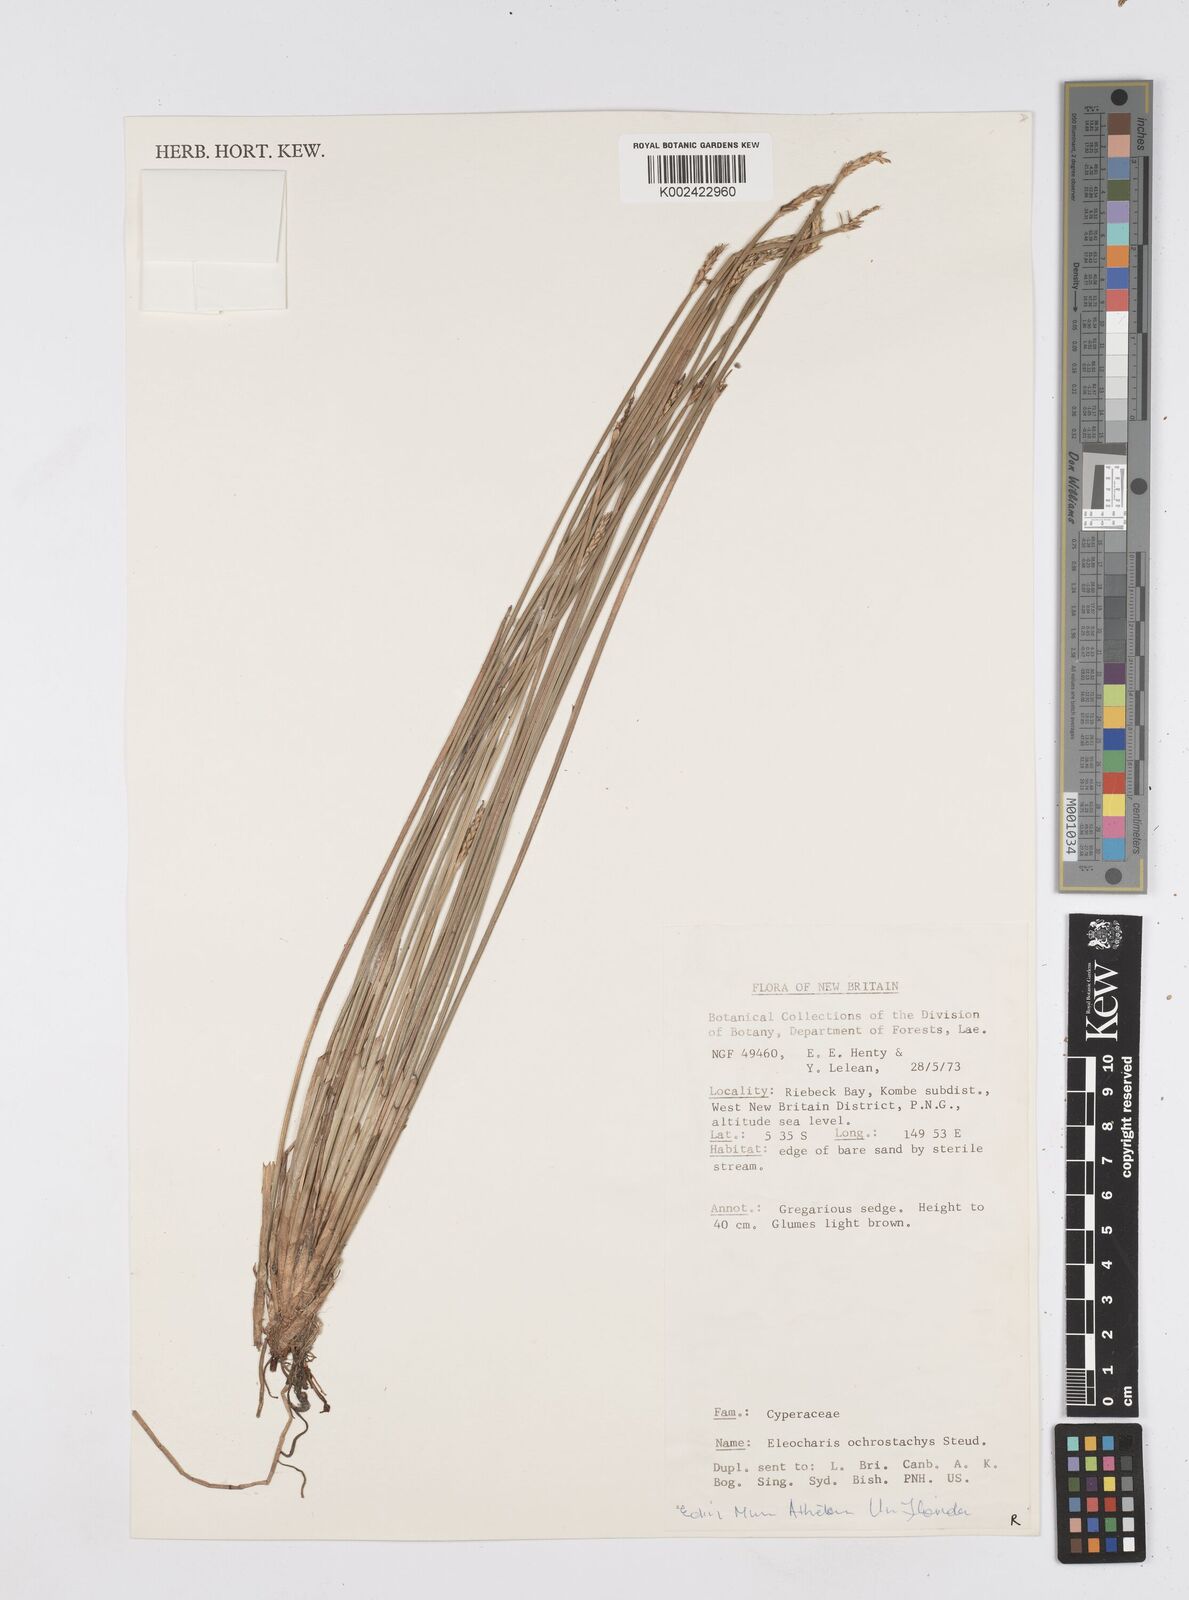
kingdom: Plantae
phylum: Tracheophyta
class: Liliopsida
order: Poales
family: Cyperaceae
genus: Eleocharis
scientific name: Eleocharis ochrostachys
